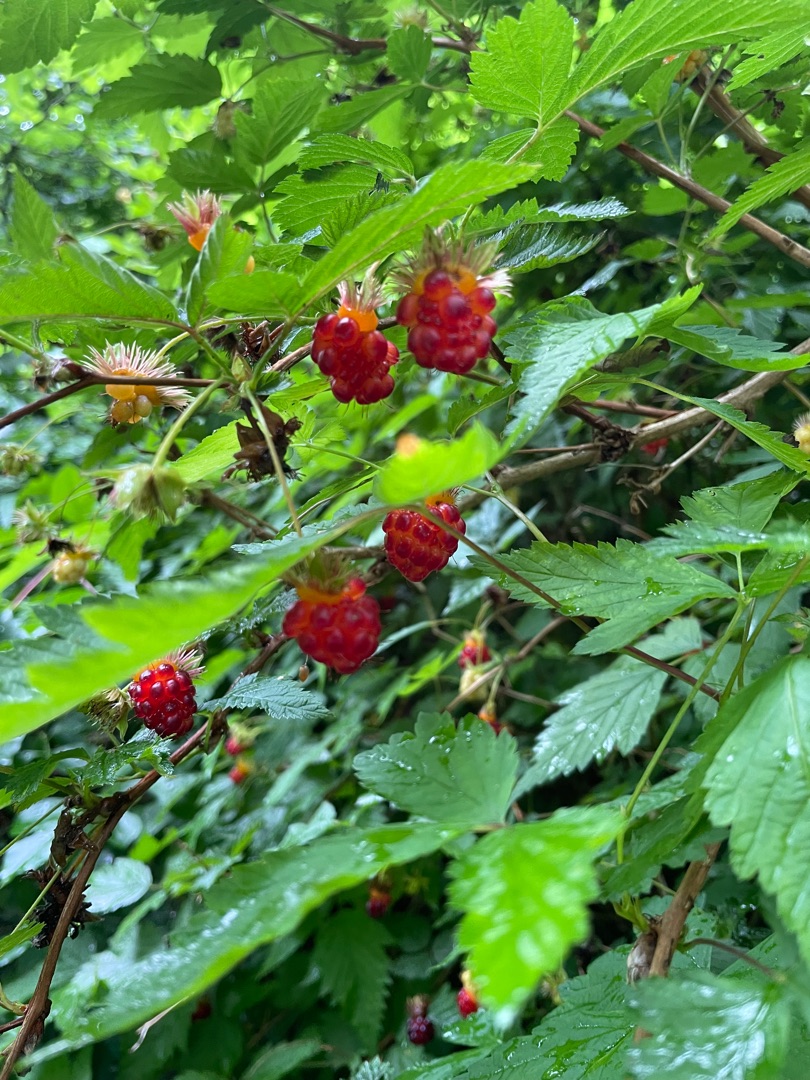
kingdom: Plantae
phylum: Tracheophyta
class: Magnoliopsida
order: Rosales
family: Rosaceae
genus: Rubus
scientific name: Rubus spectabilis
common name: Laksebær
